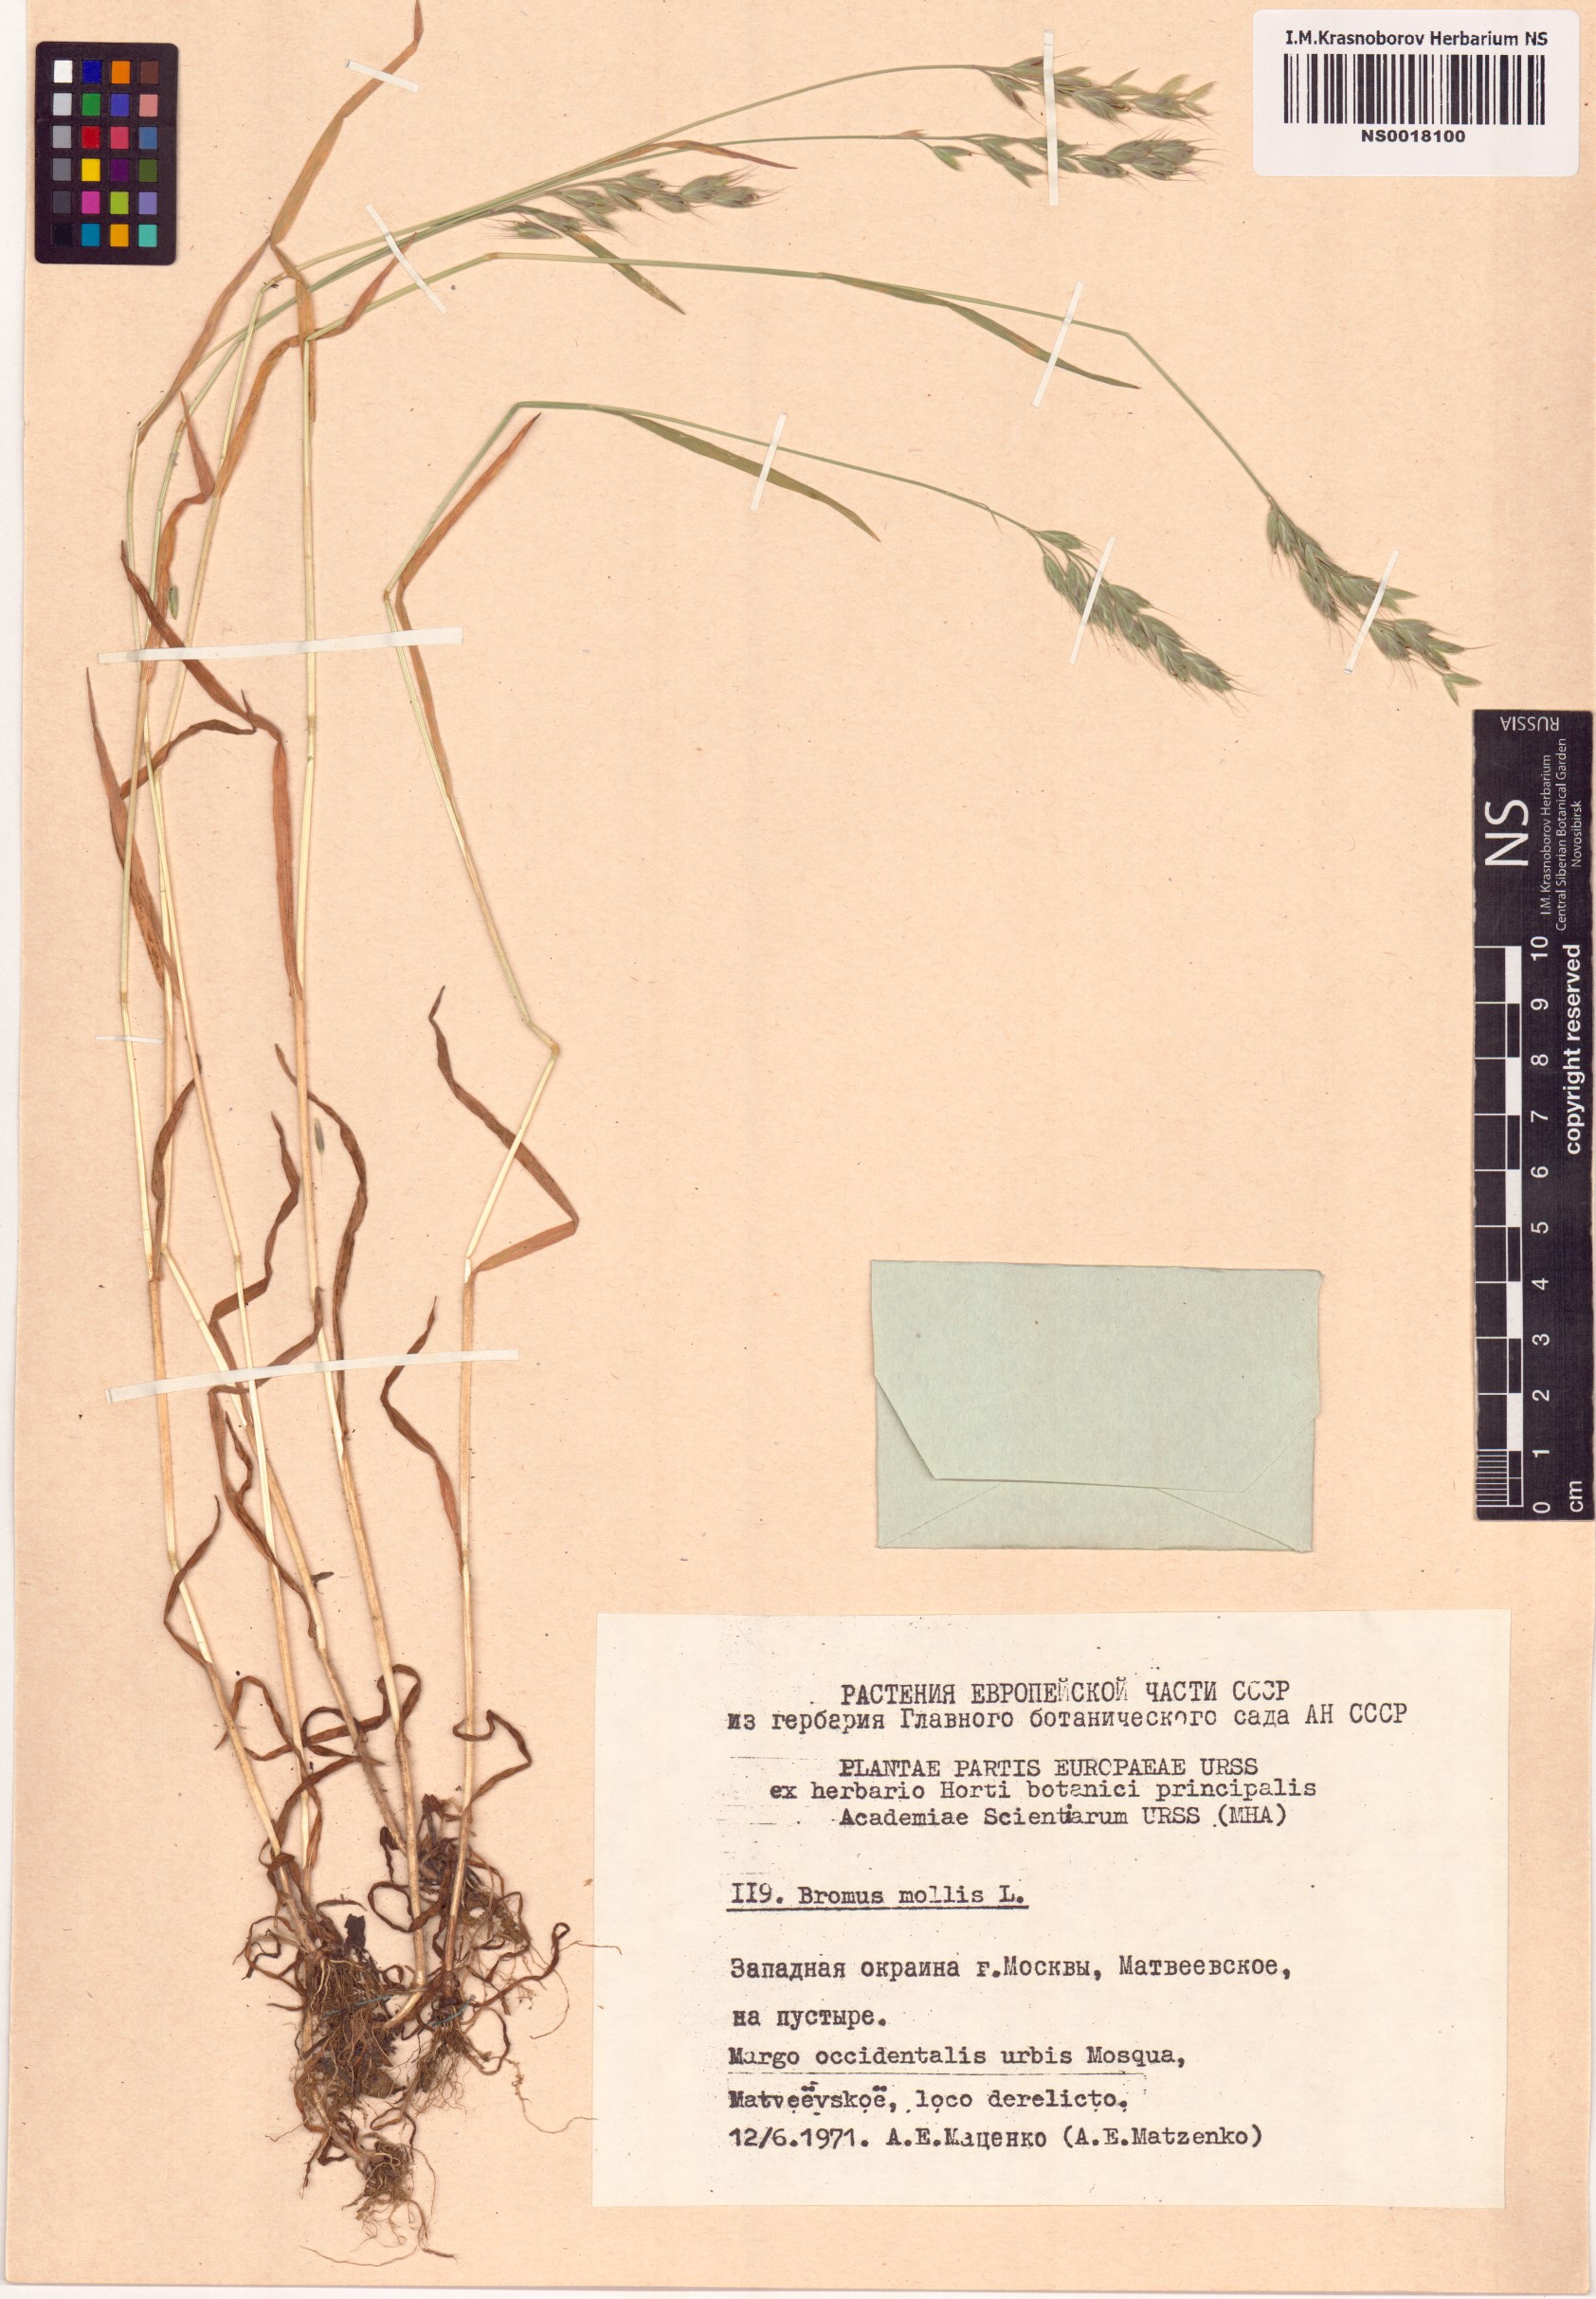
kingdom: Plantae
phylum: Tracheophyta
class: Liliopsida
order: Poales
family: Poaceae
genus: Bromus
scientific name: Bromus hordeaceus
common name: Soft brome
